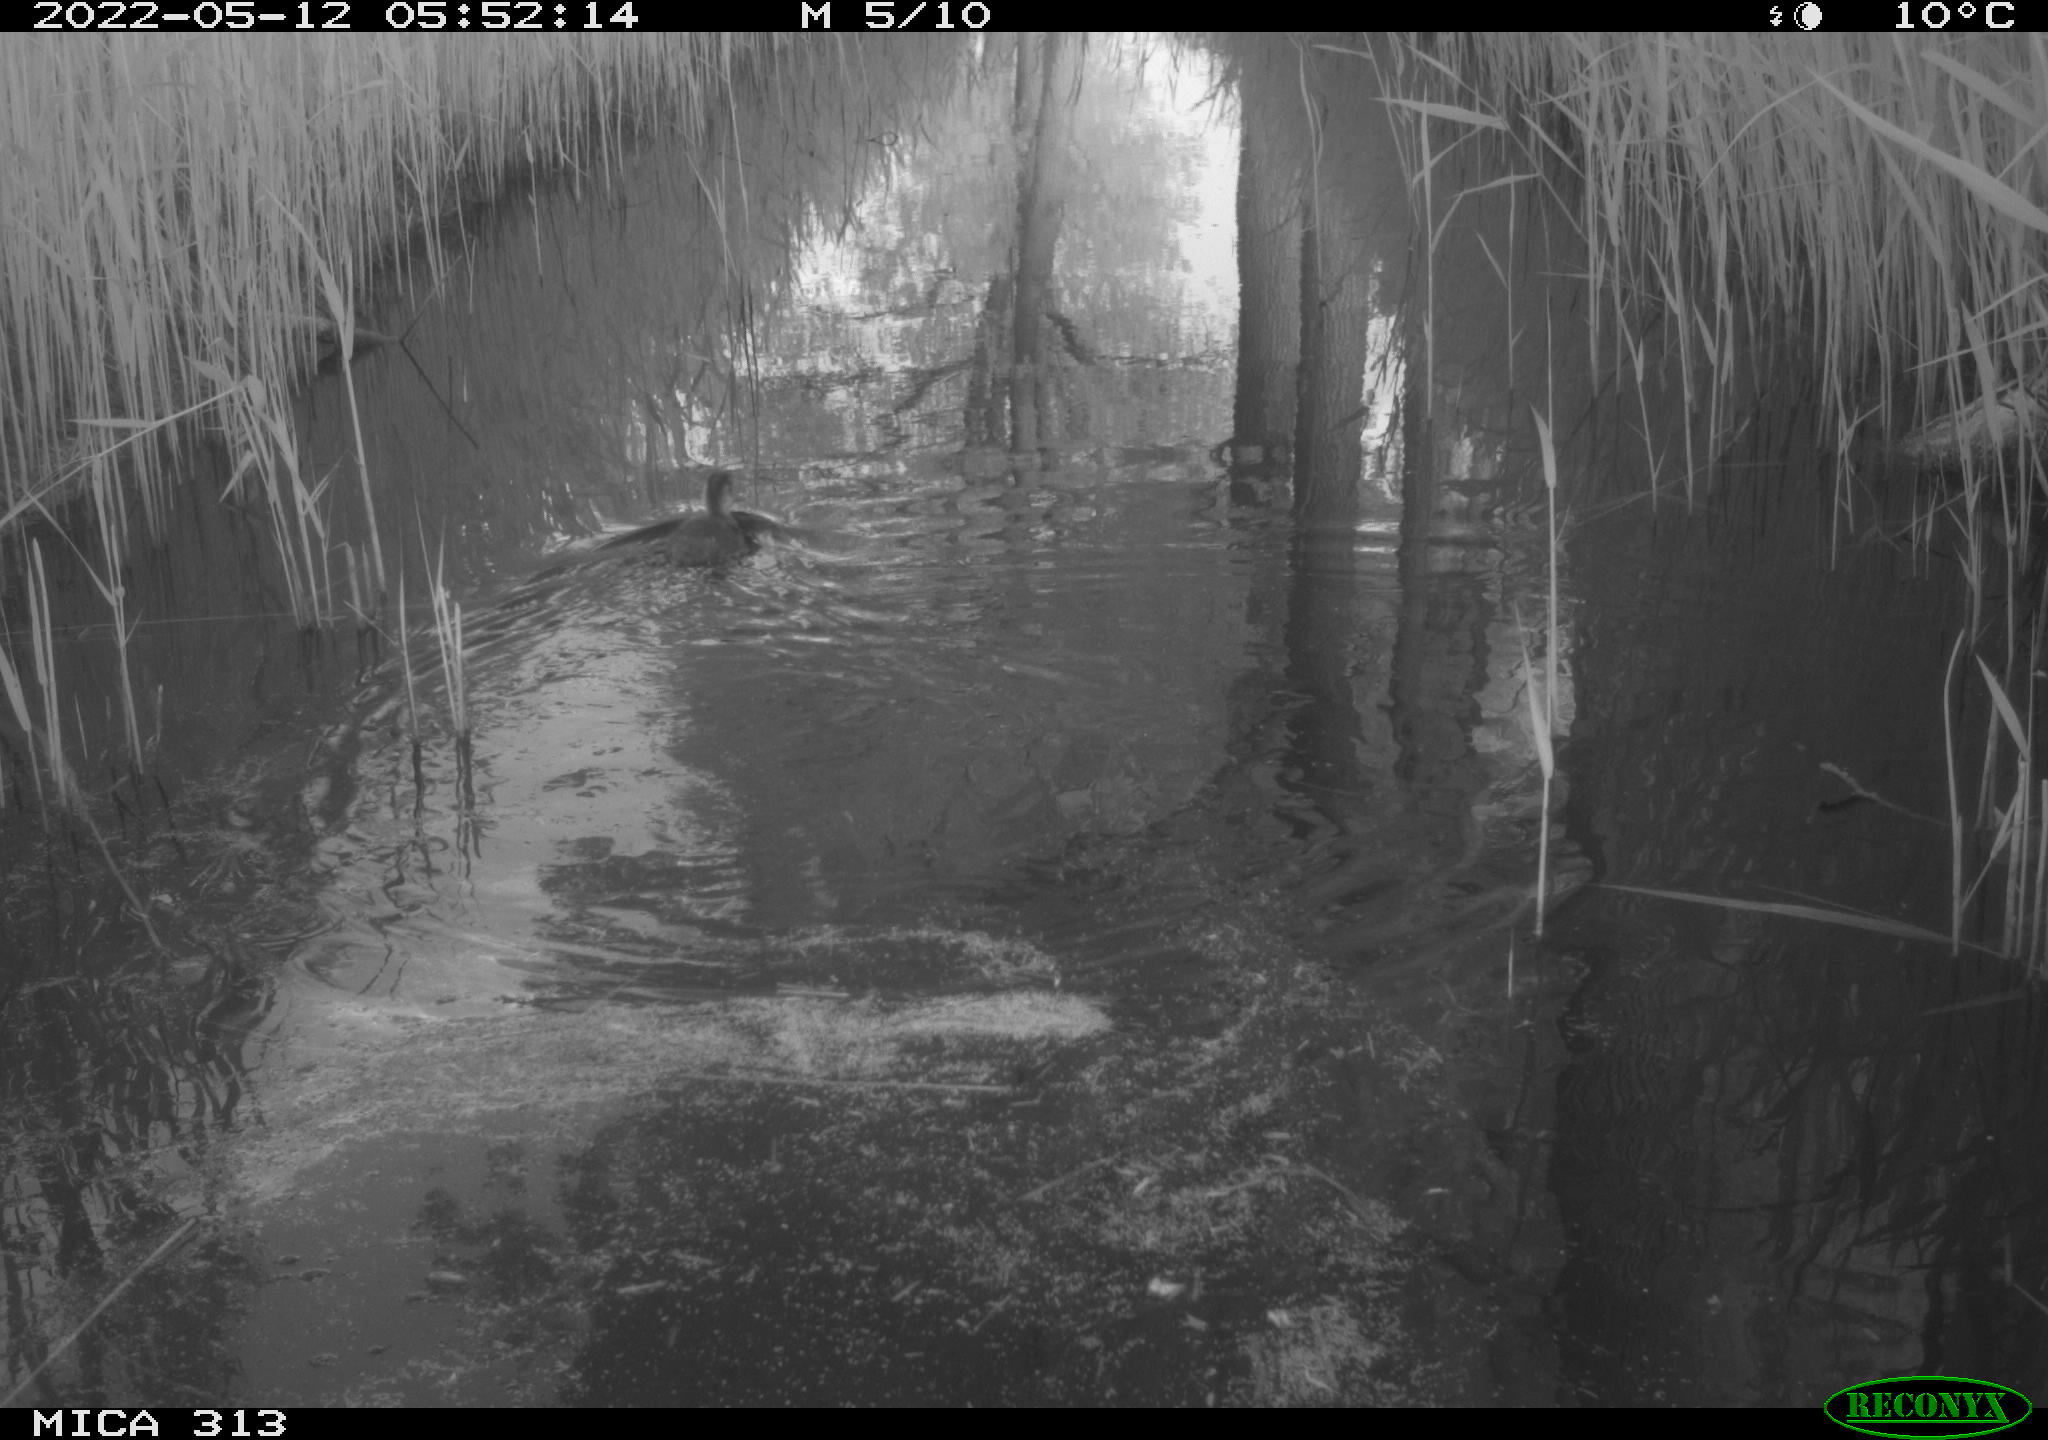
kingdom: Animalia
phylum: Chordata
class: Aves
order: Anseriformes
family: Anatidae
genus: Anas
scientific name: Anas platyrhynchos
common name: Mallard
